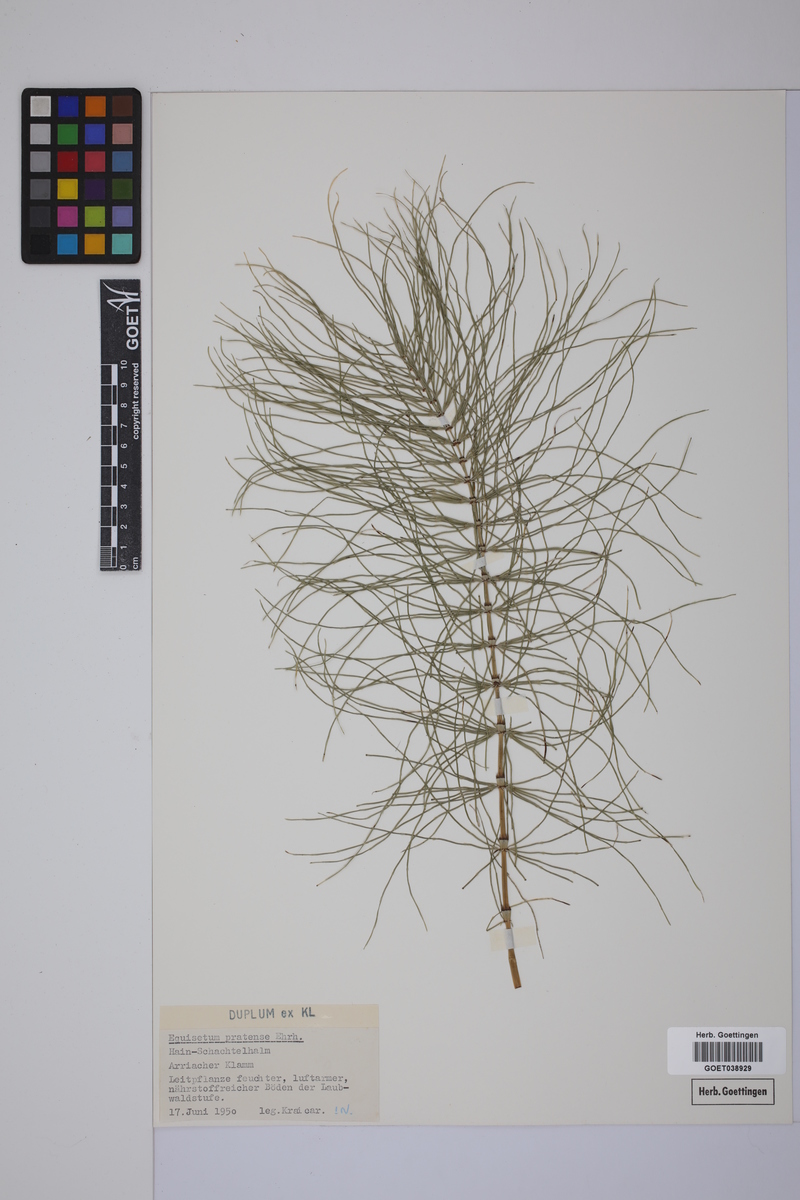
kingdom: Plantae
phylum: Tracheophyta
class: Polypodiopsida
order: Equisetales
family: Equisetaceae
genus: Equisetum
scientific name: Equisetum pratense
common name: Meadow horsetail
